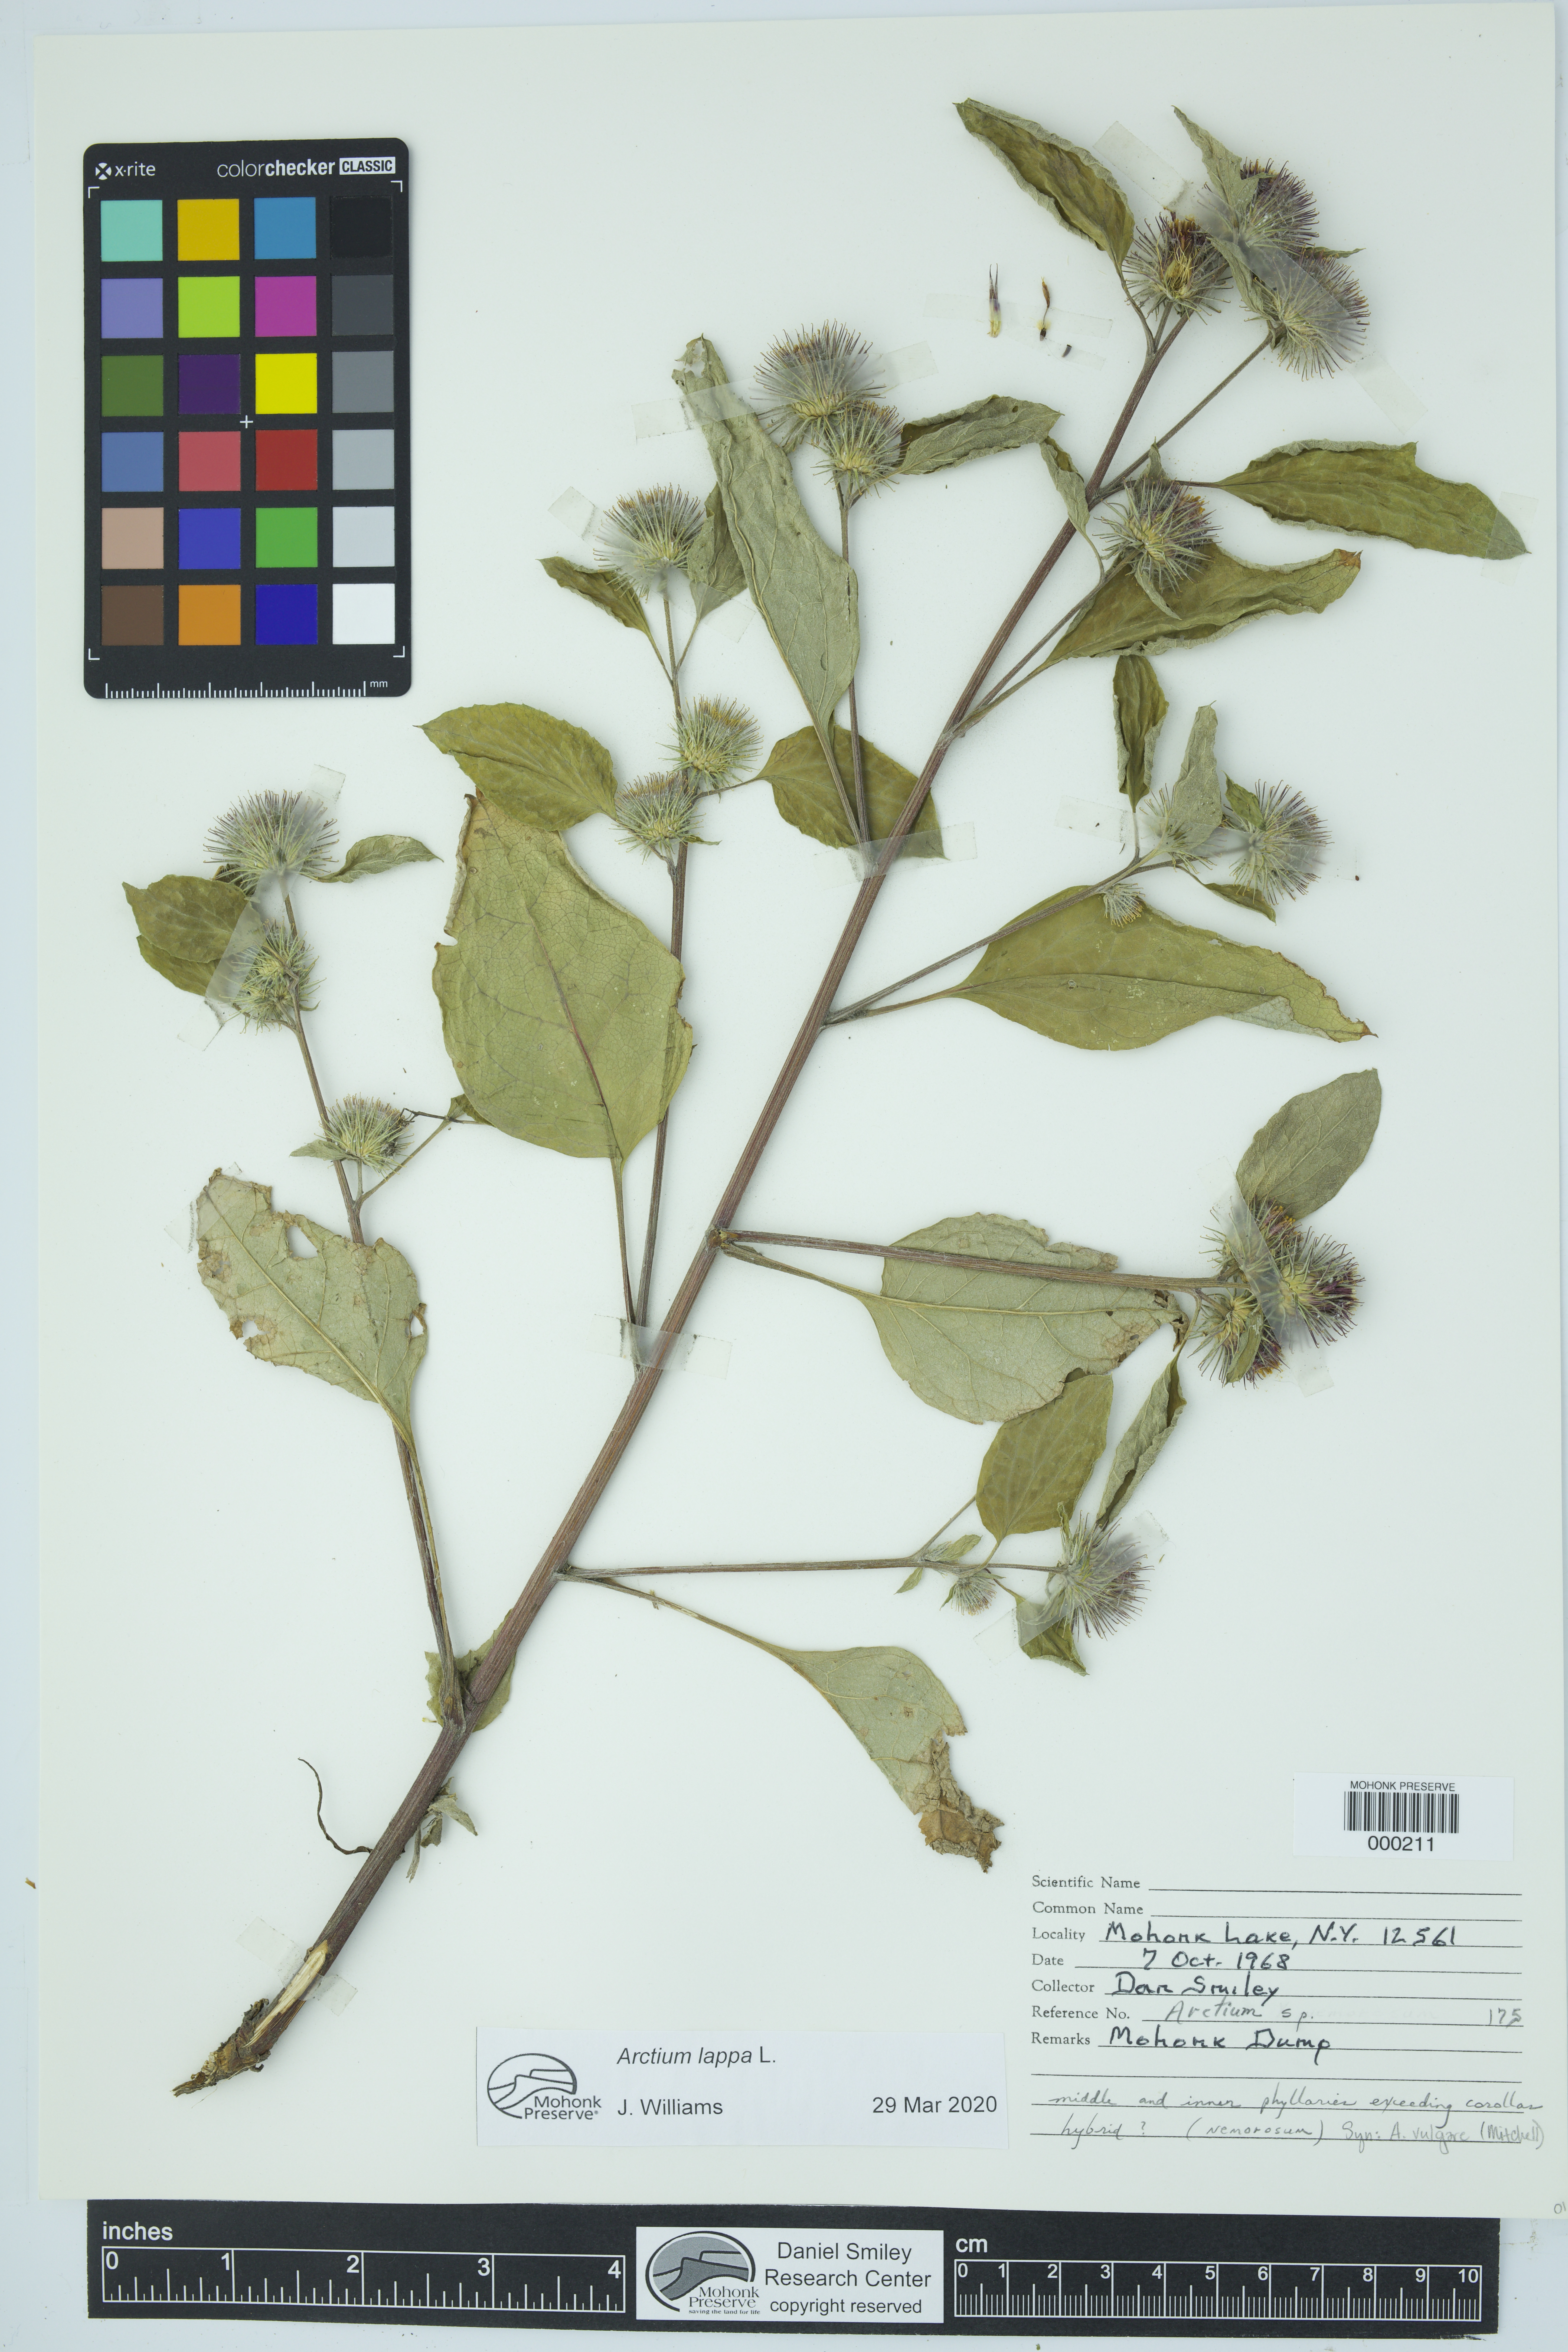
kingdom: Plantae
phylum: Tracheophyta
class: Magnoliopsida
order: Asterales
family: Asteraceae
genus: Arctium
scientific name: Arctium lappa
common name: Greater burdock
